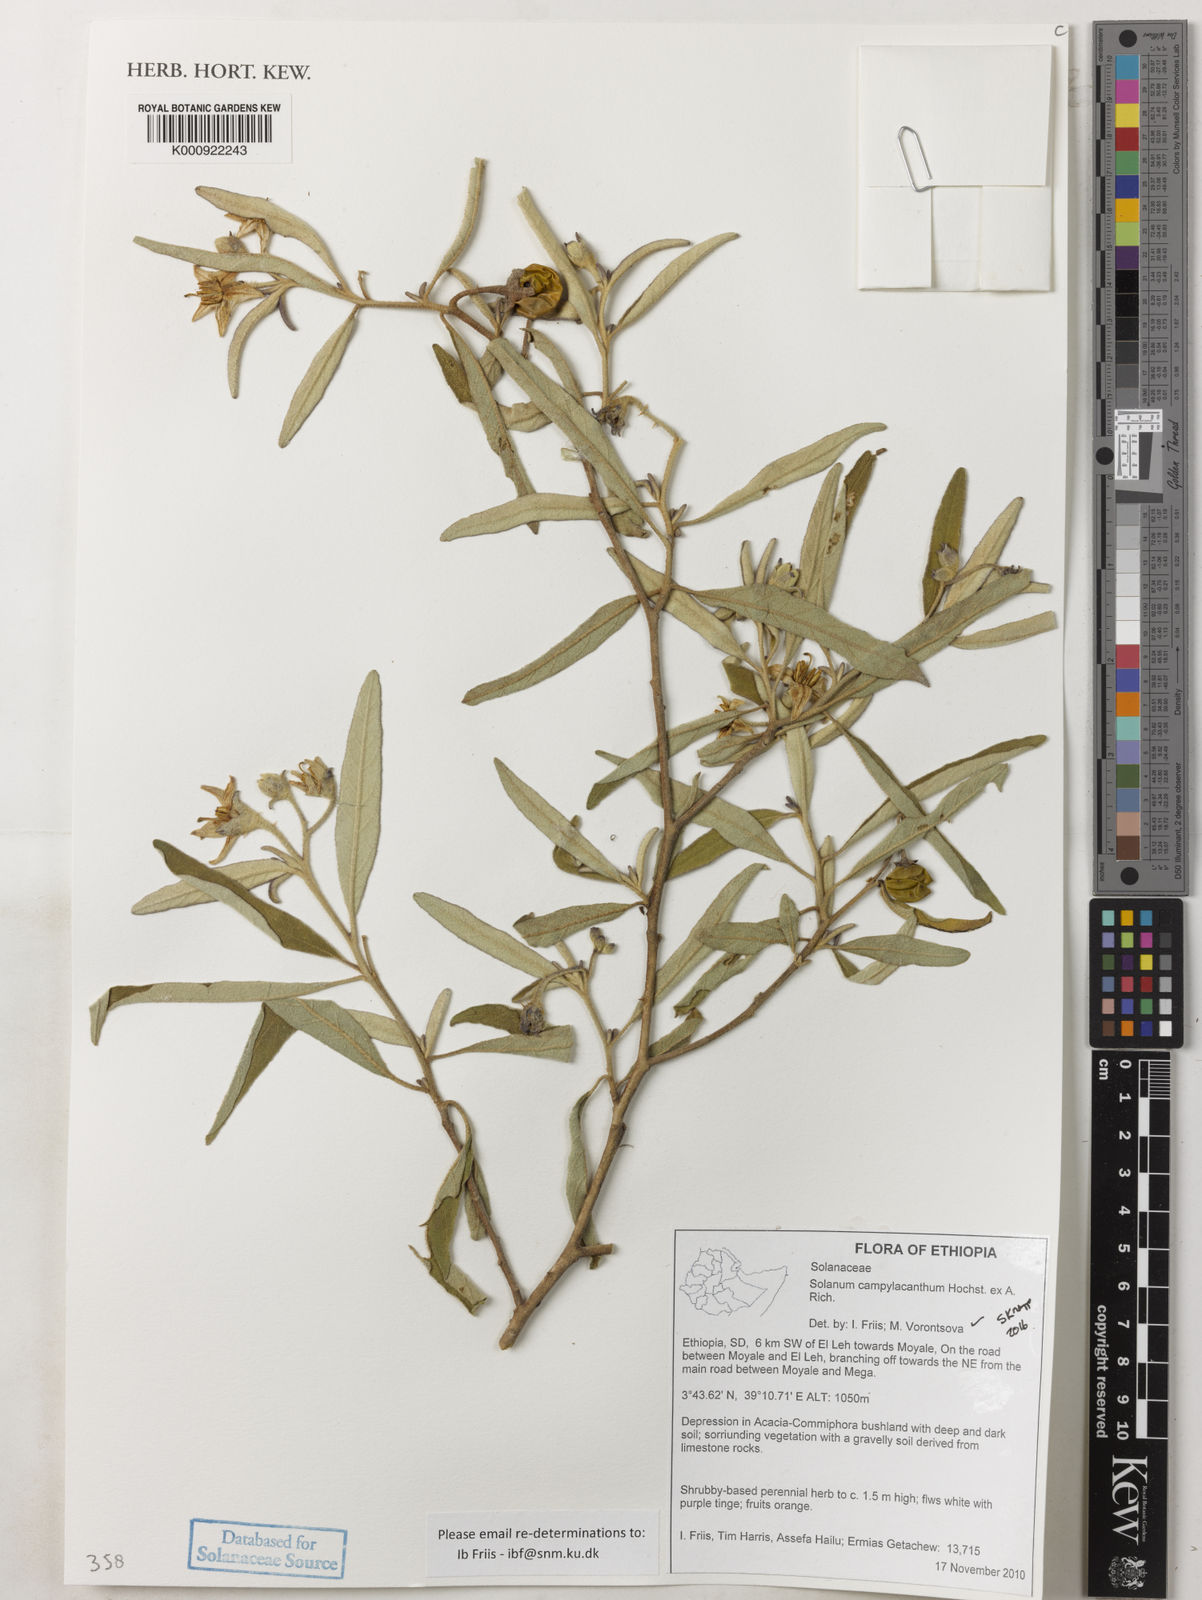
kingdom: Plantae
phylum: Tracheophyta
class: Magnoliopsida
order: Solanales
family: Solanaceae
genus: Solanum
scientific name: Solanum campylacanthum
